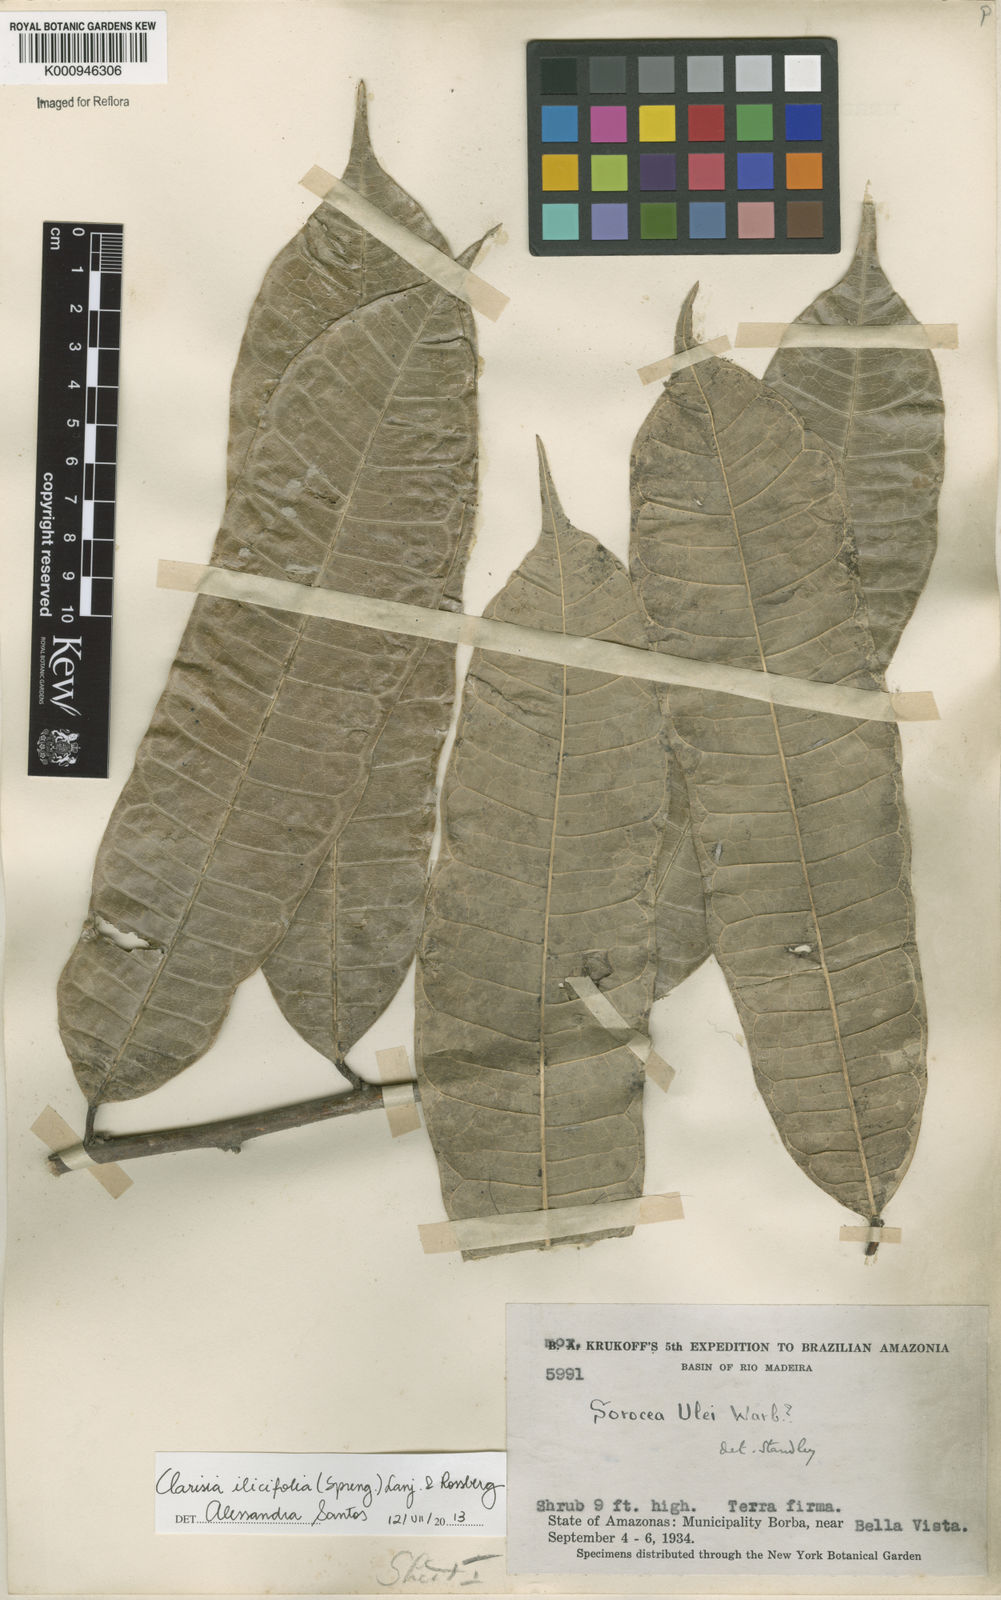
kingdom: Plantae
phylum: Tracheophyta
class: Magnoliopsida
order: Rosales
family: Moraceae
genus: Clarisia
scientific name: Clarisia ilicifolia
